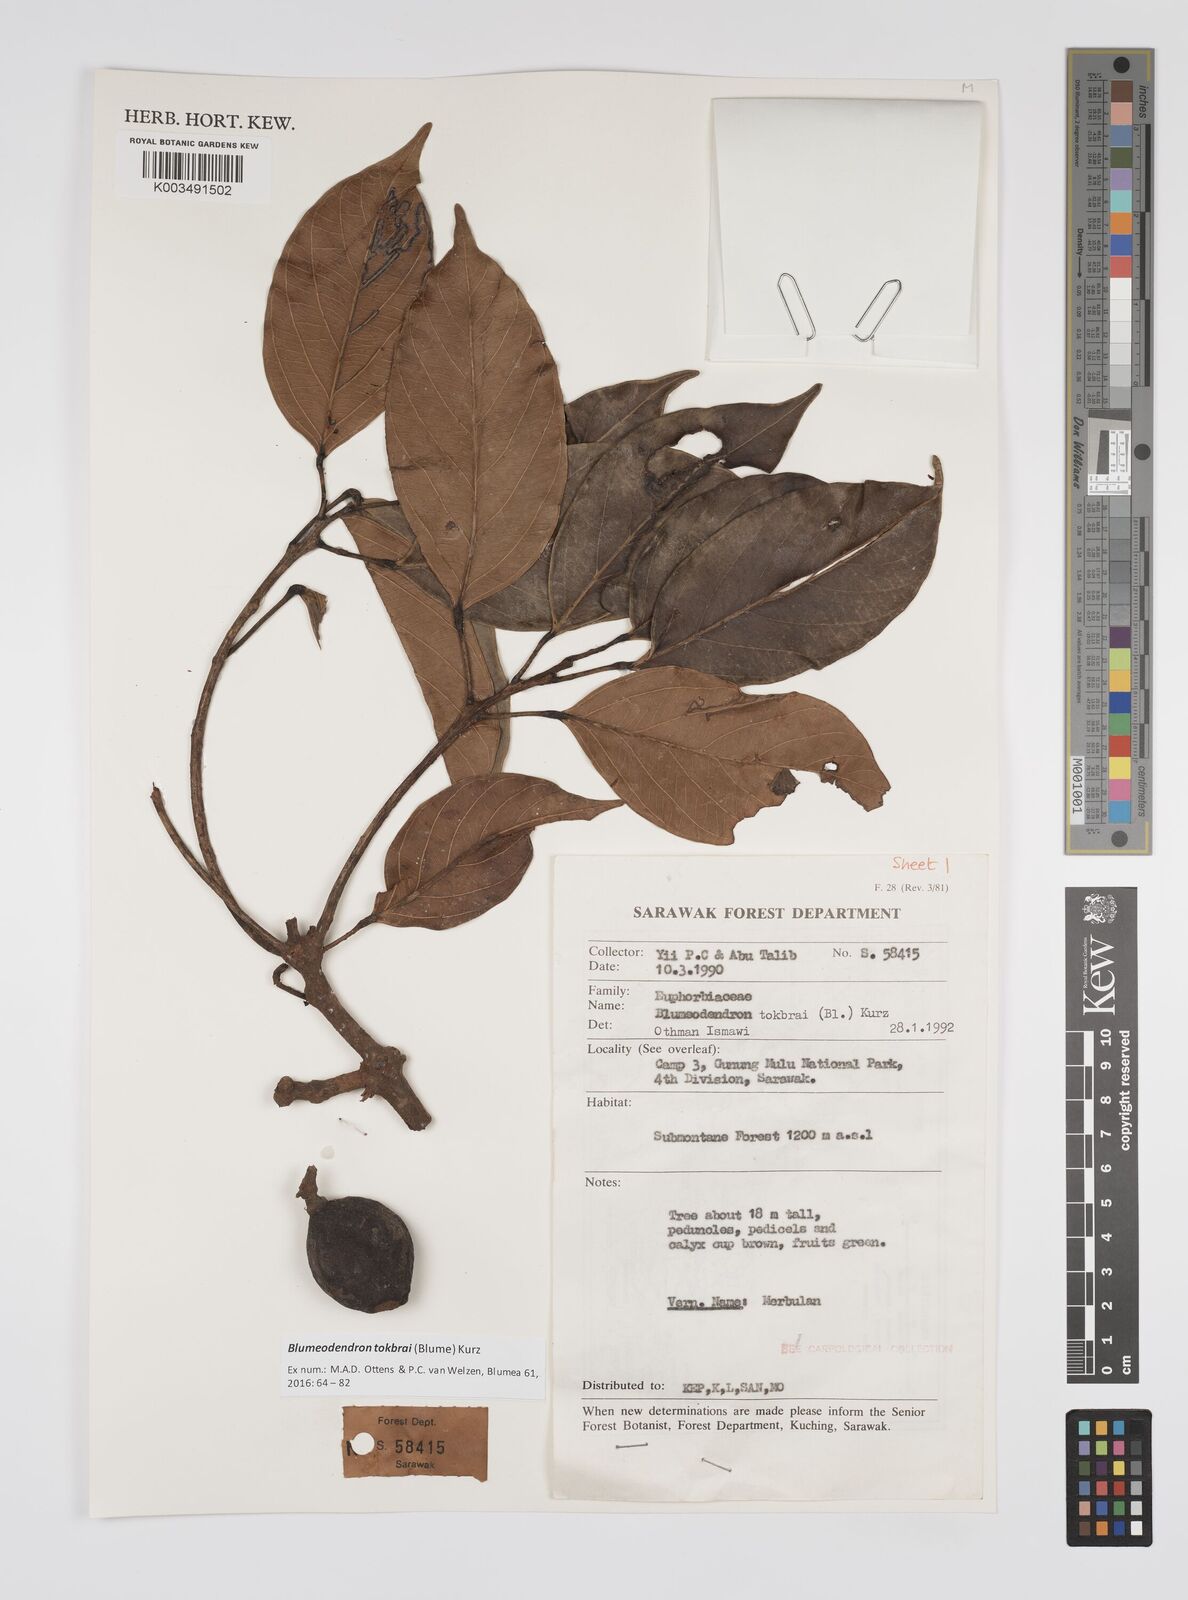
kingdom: Plantae
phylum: Tracheophyta
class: Magnoliopsida
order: Malpighiales
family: Euphorbiaceae
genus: Blumeodendron
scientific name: Blumeodendron tokbrai
